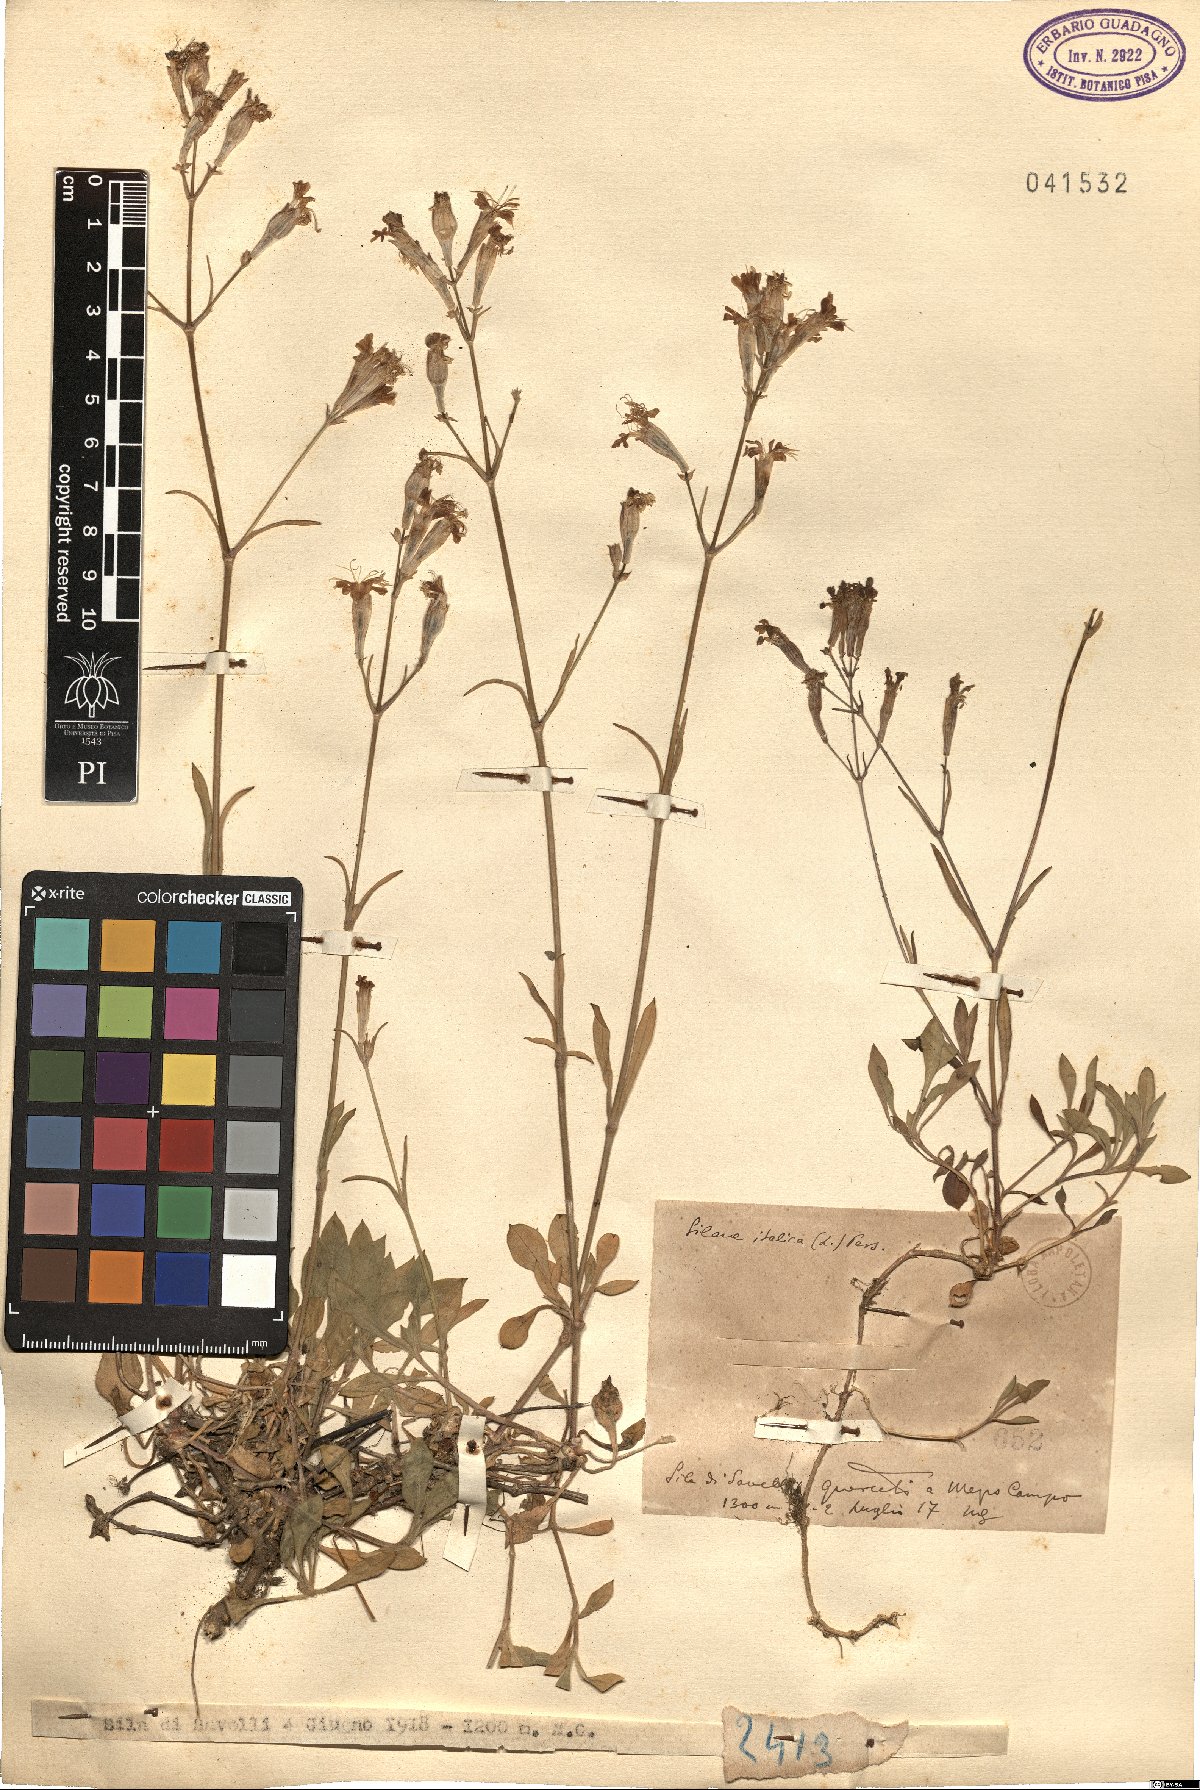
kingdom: Plantae
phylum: Tracheophyta
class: Magnoliopsida
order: Caryophyllales
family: Caryophyllaceae
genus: Silene
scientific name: Silene italica
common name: Italian catchfly
